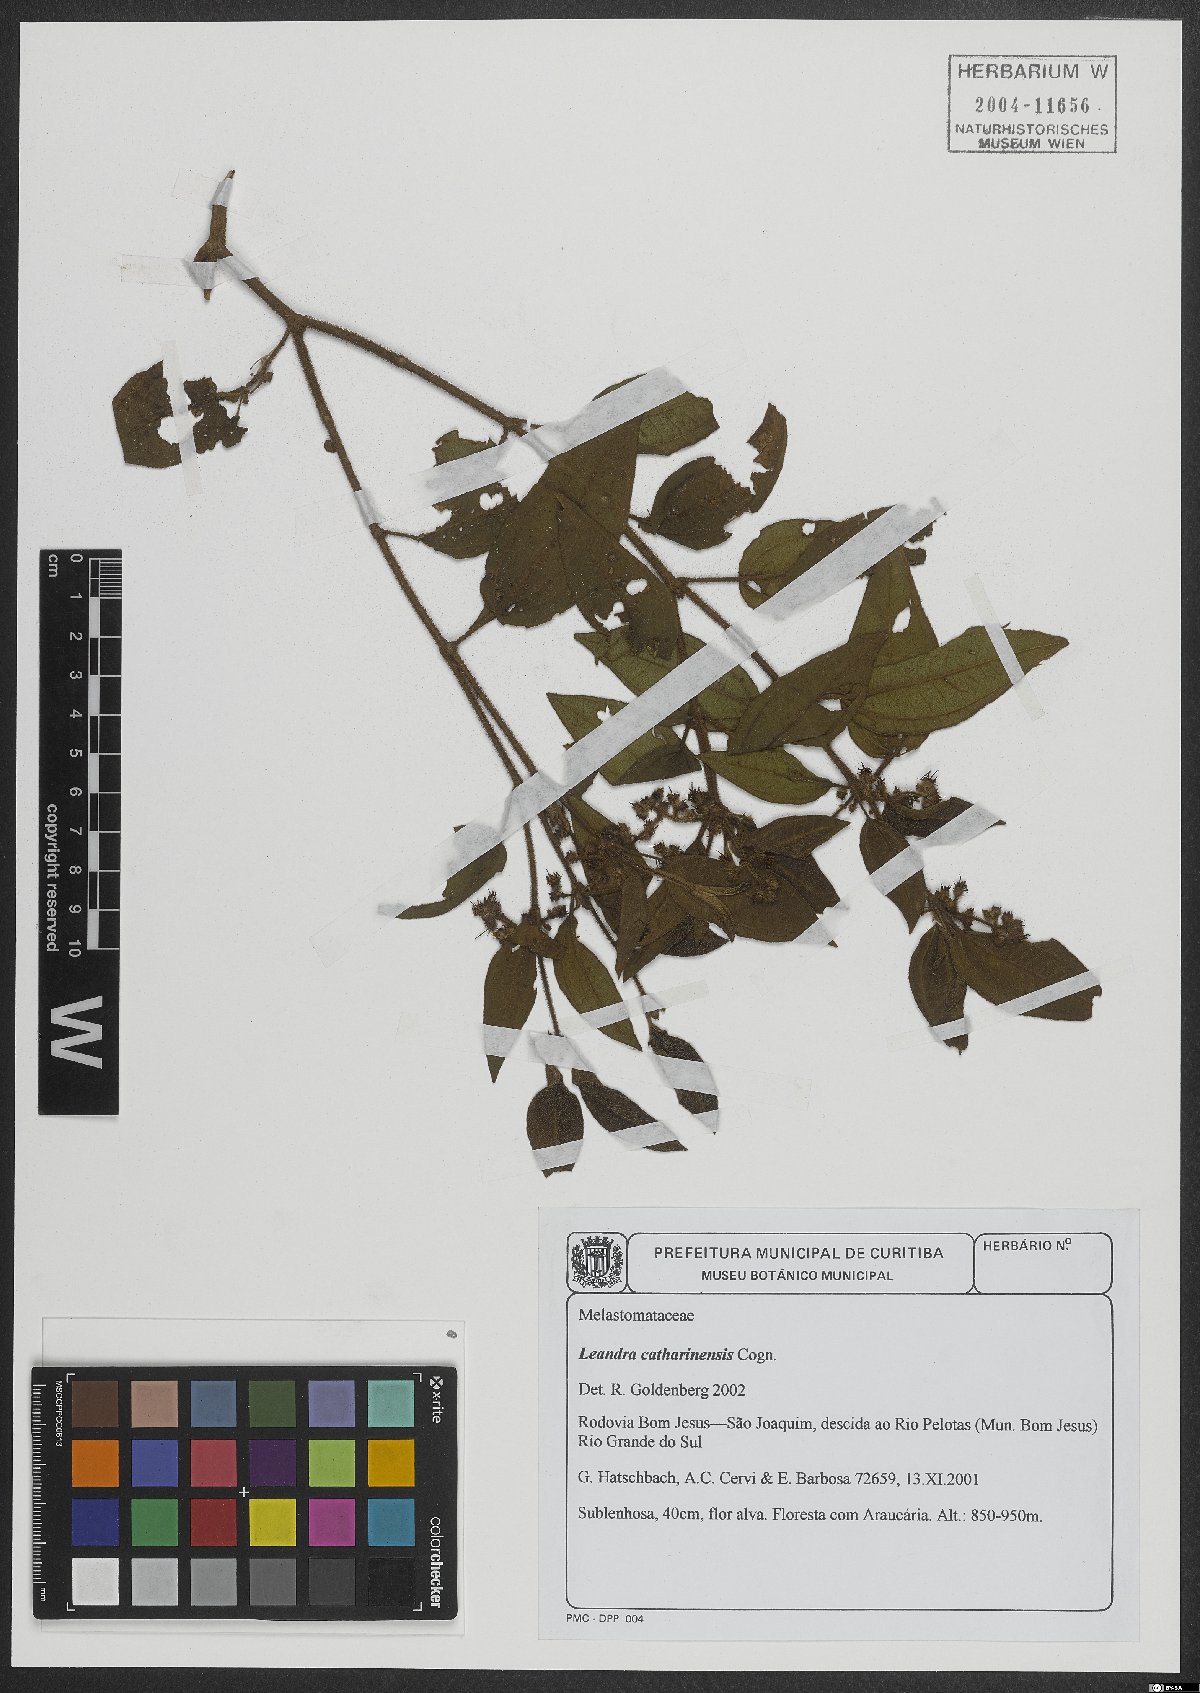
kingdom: Plantae
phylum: Tracheophyta
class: Magnoliopsida
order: Myrtales
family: Melastomataceae
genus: Miconia
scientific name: Miconia catharinensis
